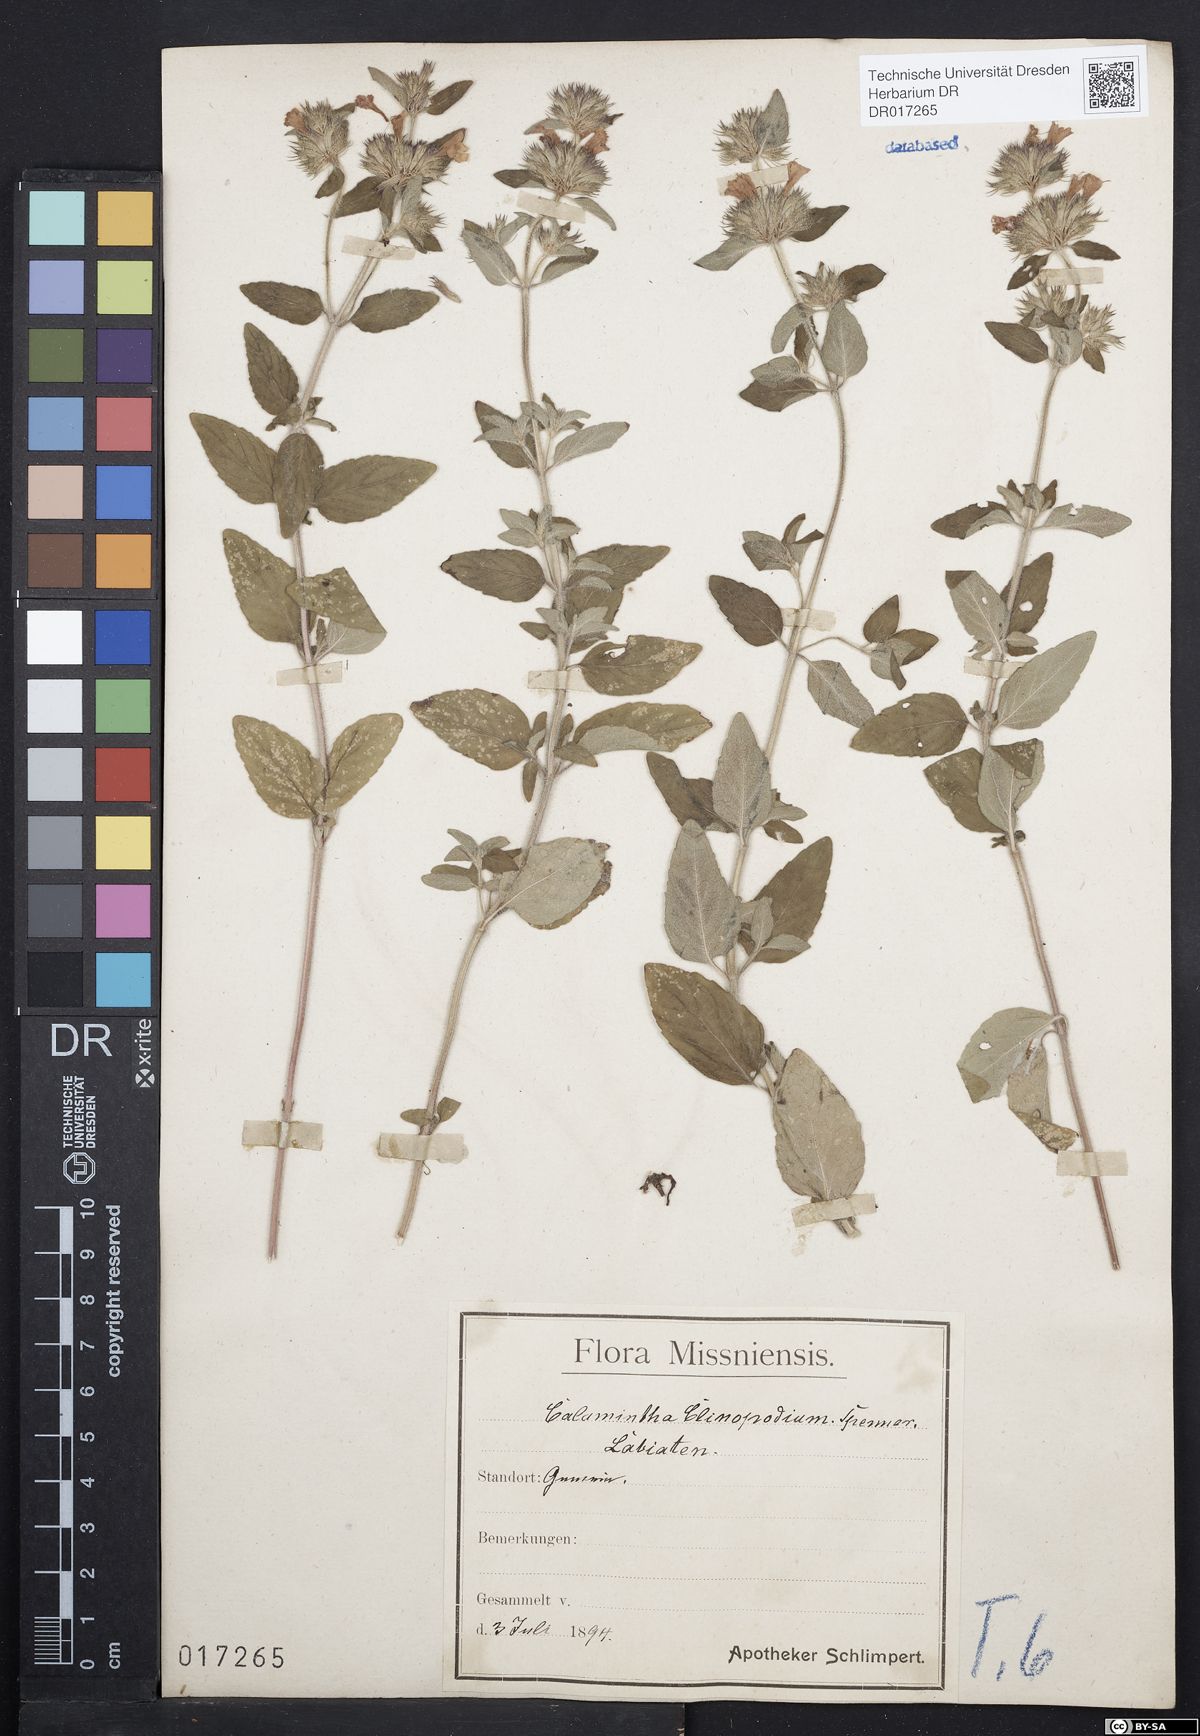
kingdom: Plantae
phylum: Tracheophyta
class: Magnoliopsida
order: Lamiales
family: Lamiaceae
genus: Clinopodium
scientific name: Clinopodium vulgare
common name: Wild basil
